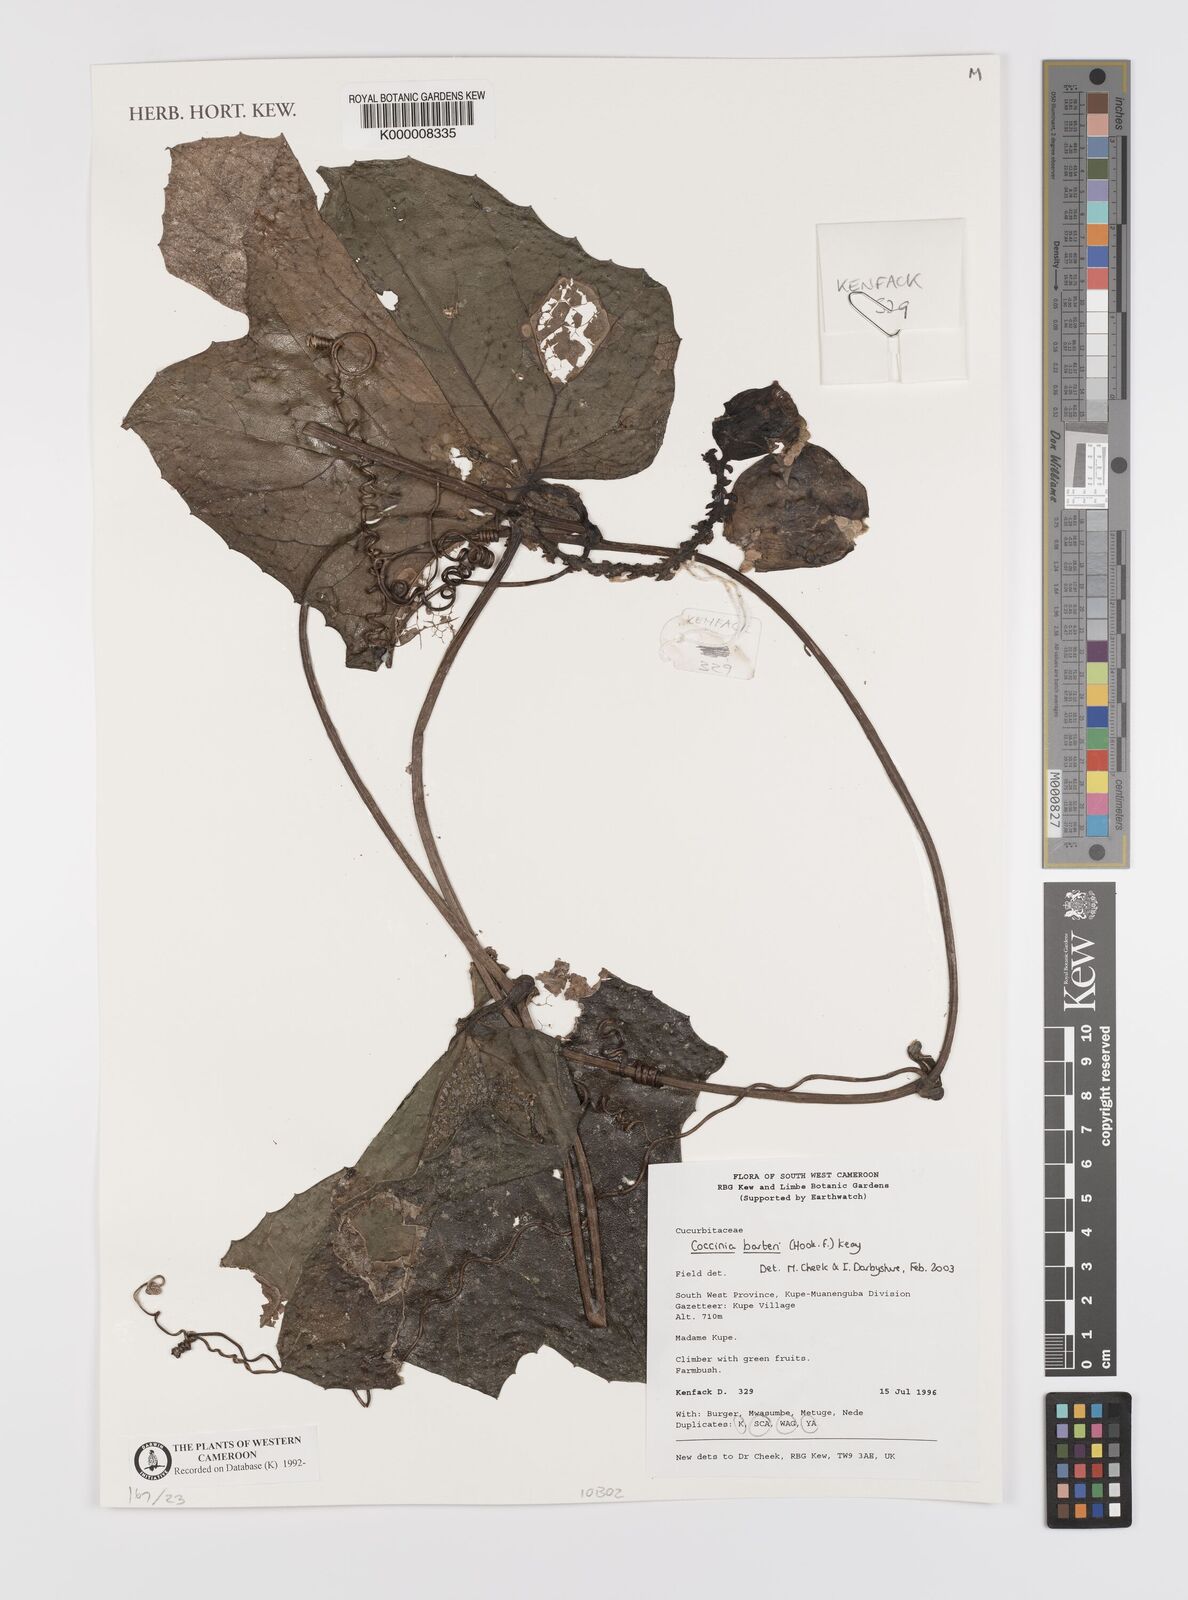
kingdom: Plantae
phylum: Tracheophyta
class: Magnoliopsida
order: Cucurbitales
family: Cucurbitaceae
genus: Coccinia
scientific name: Coccinia barteri
